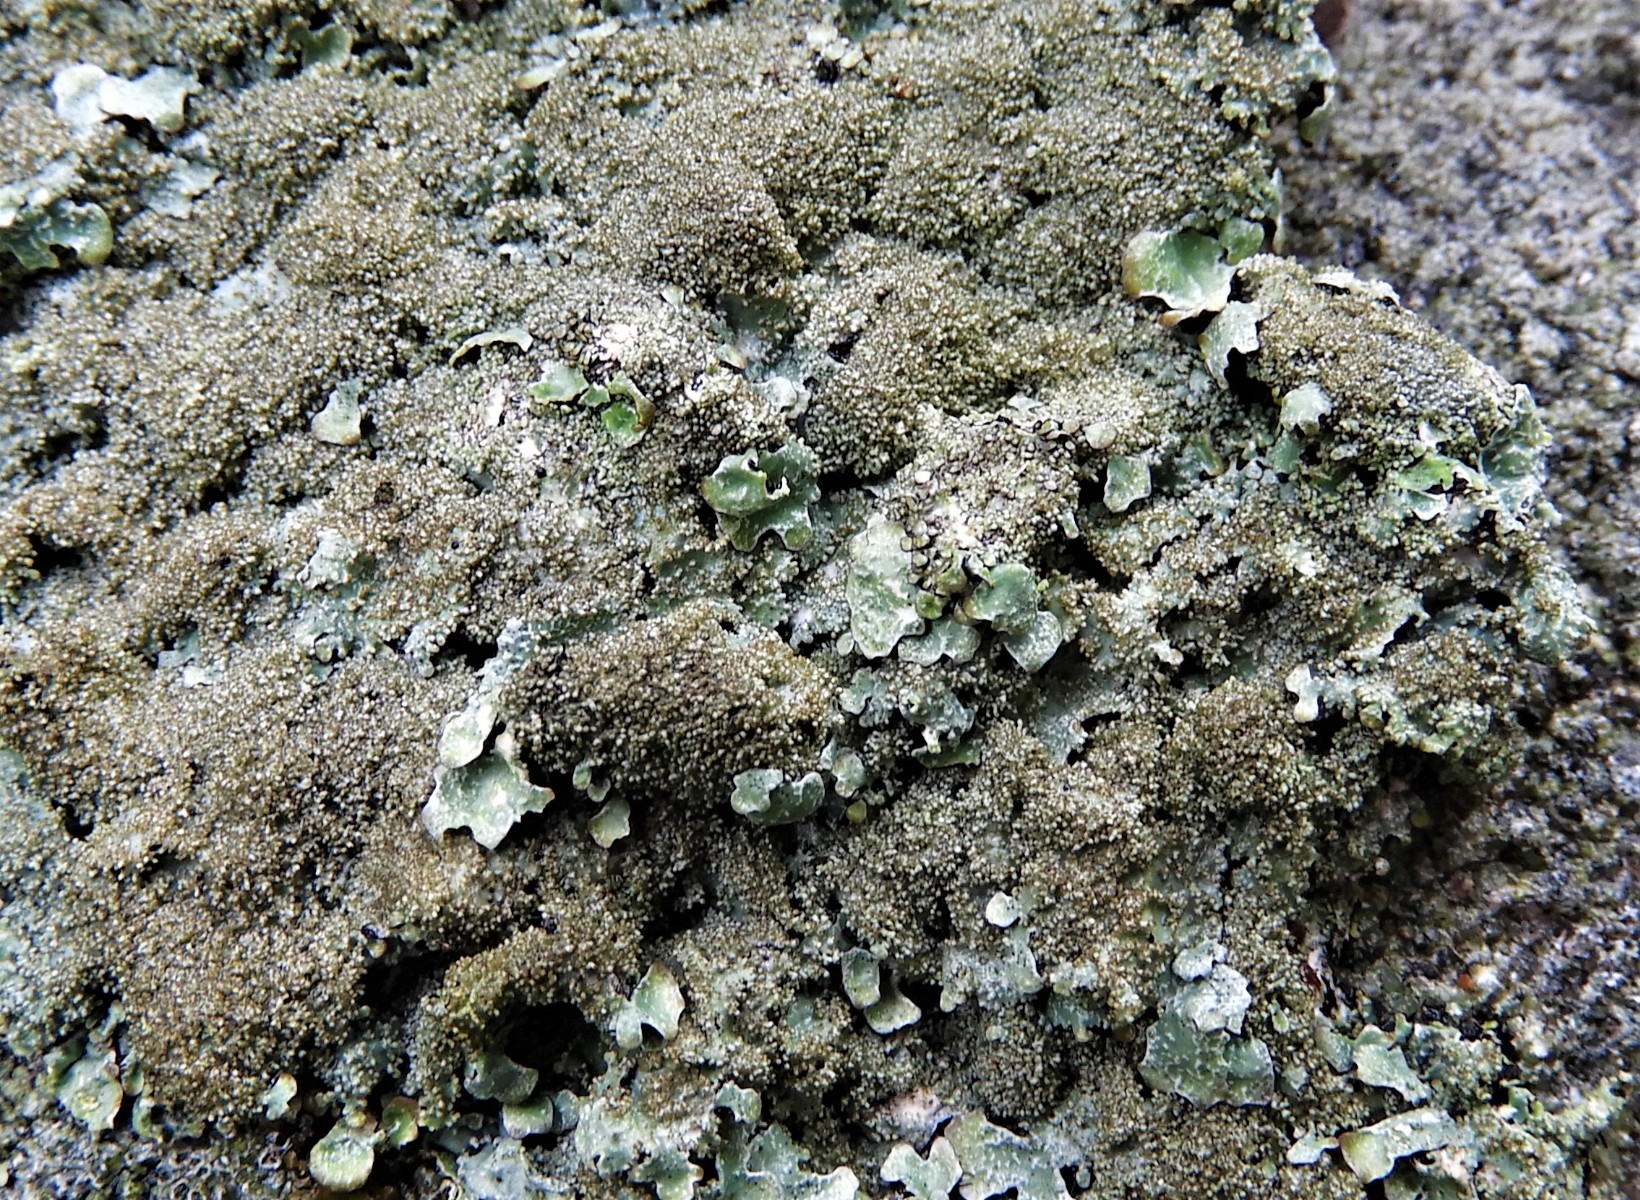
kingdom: Fungi
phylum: Ascomycota
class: Lecanoromycetes
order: Lecanorales
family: Parmeliaceae
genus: Parmelia
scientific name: Parmelia saxatilis
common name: farve-skållav
